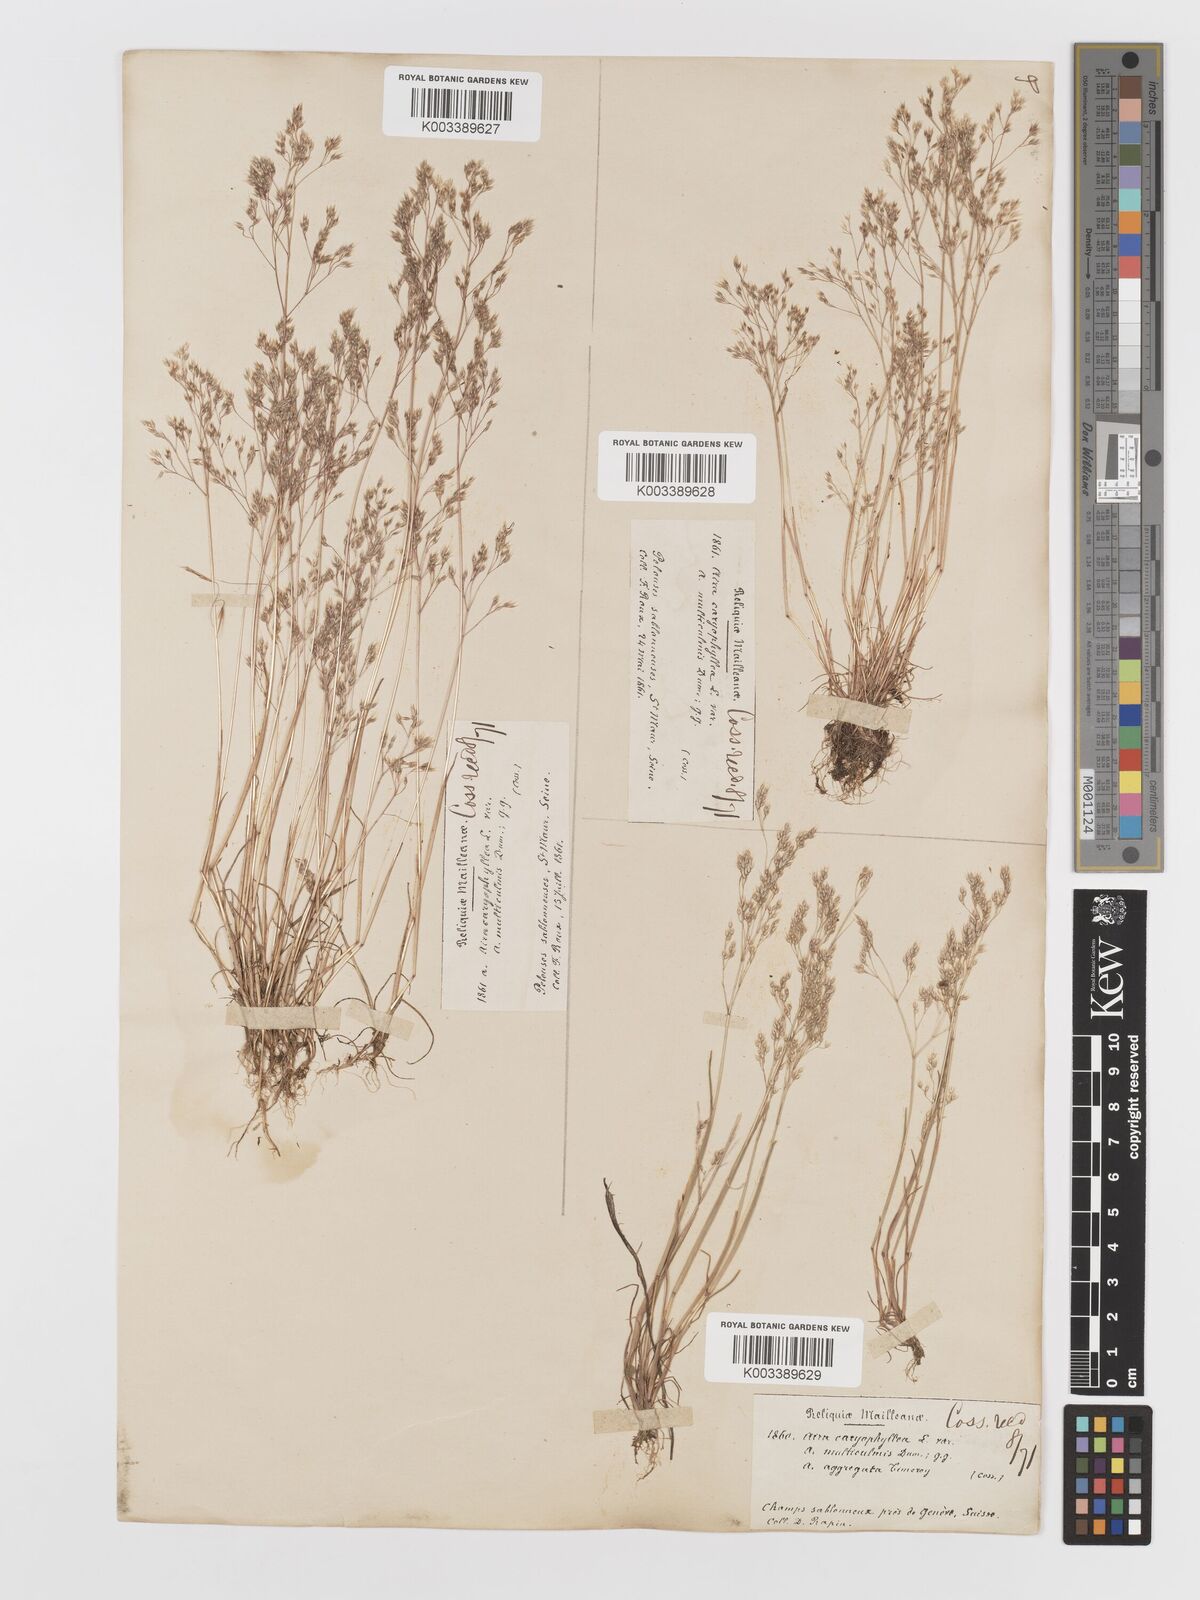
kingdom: Plantae
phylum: Tracheophyta
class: Liliopsida
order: Poales
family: Poaceae
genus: Aira
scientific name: Aira caryophyllea
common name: Silver hairgrass
